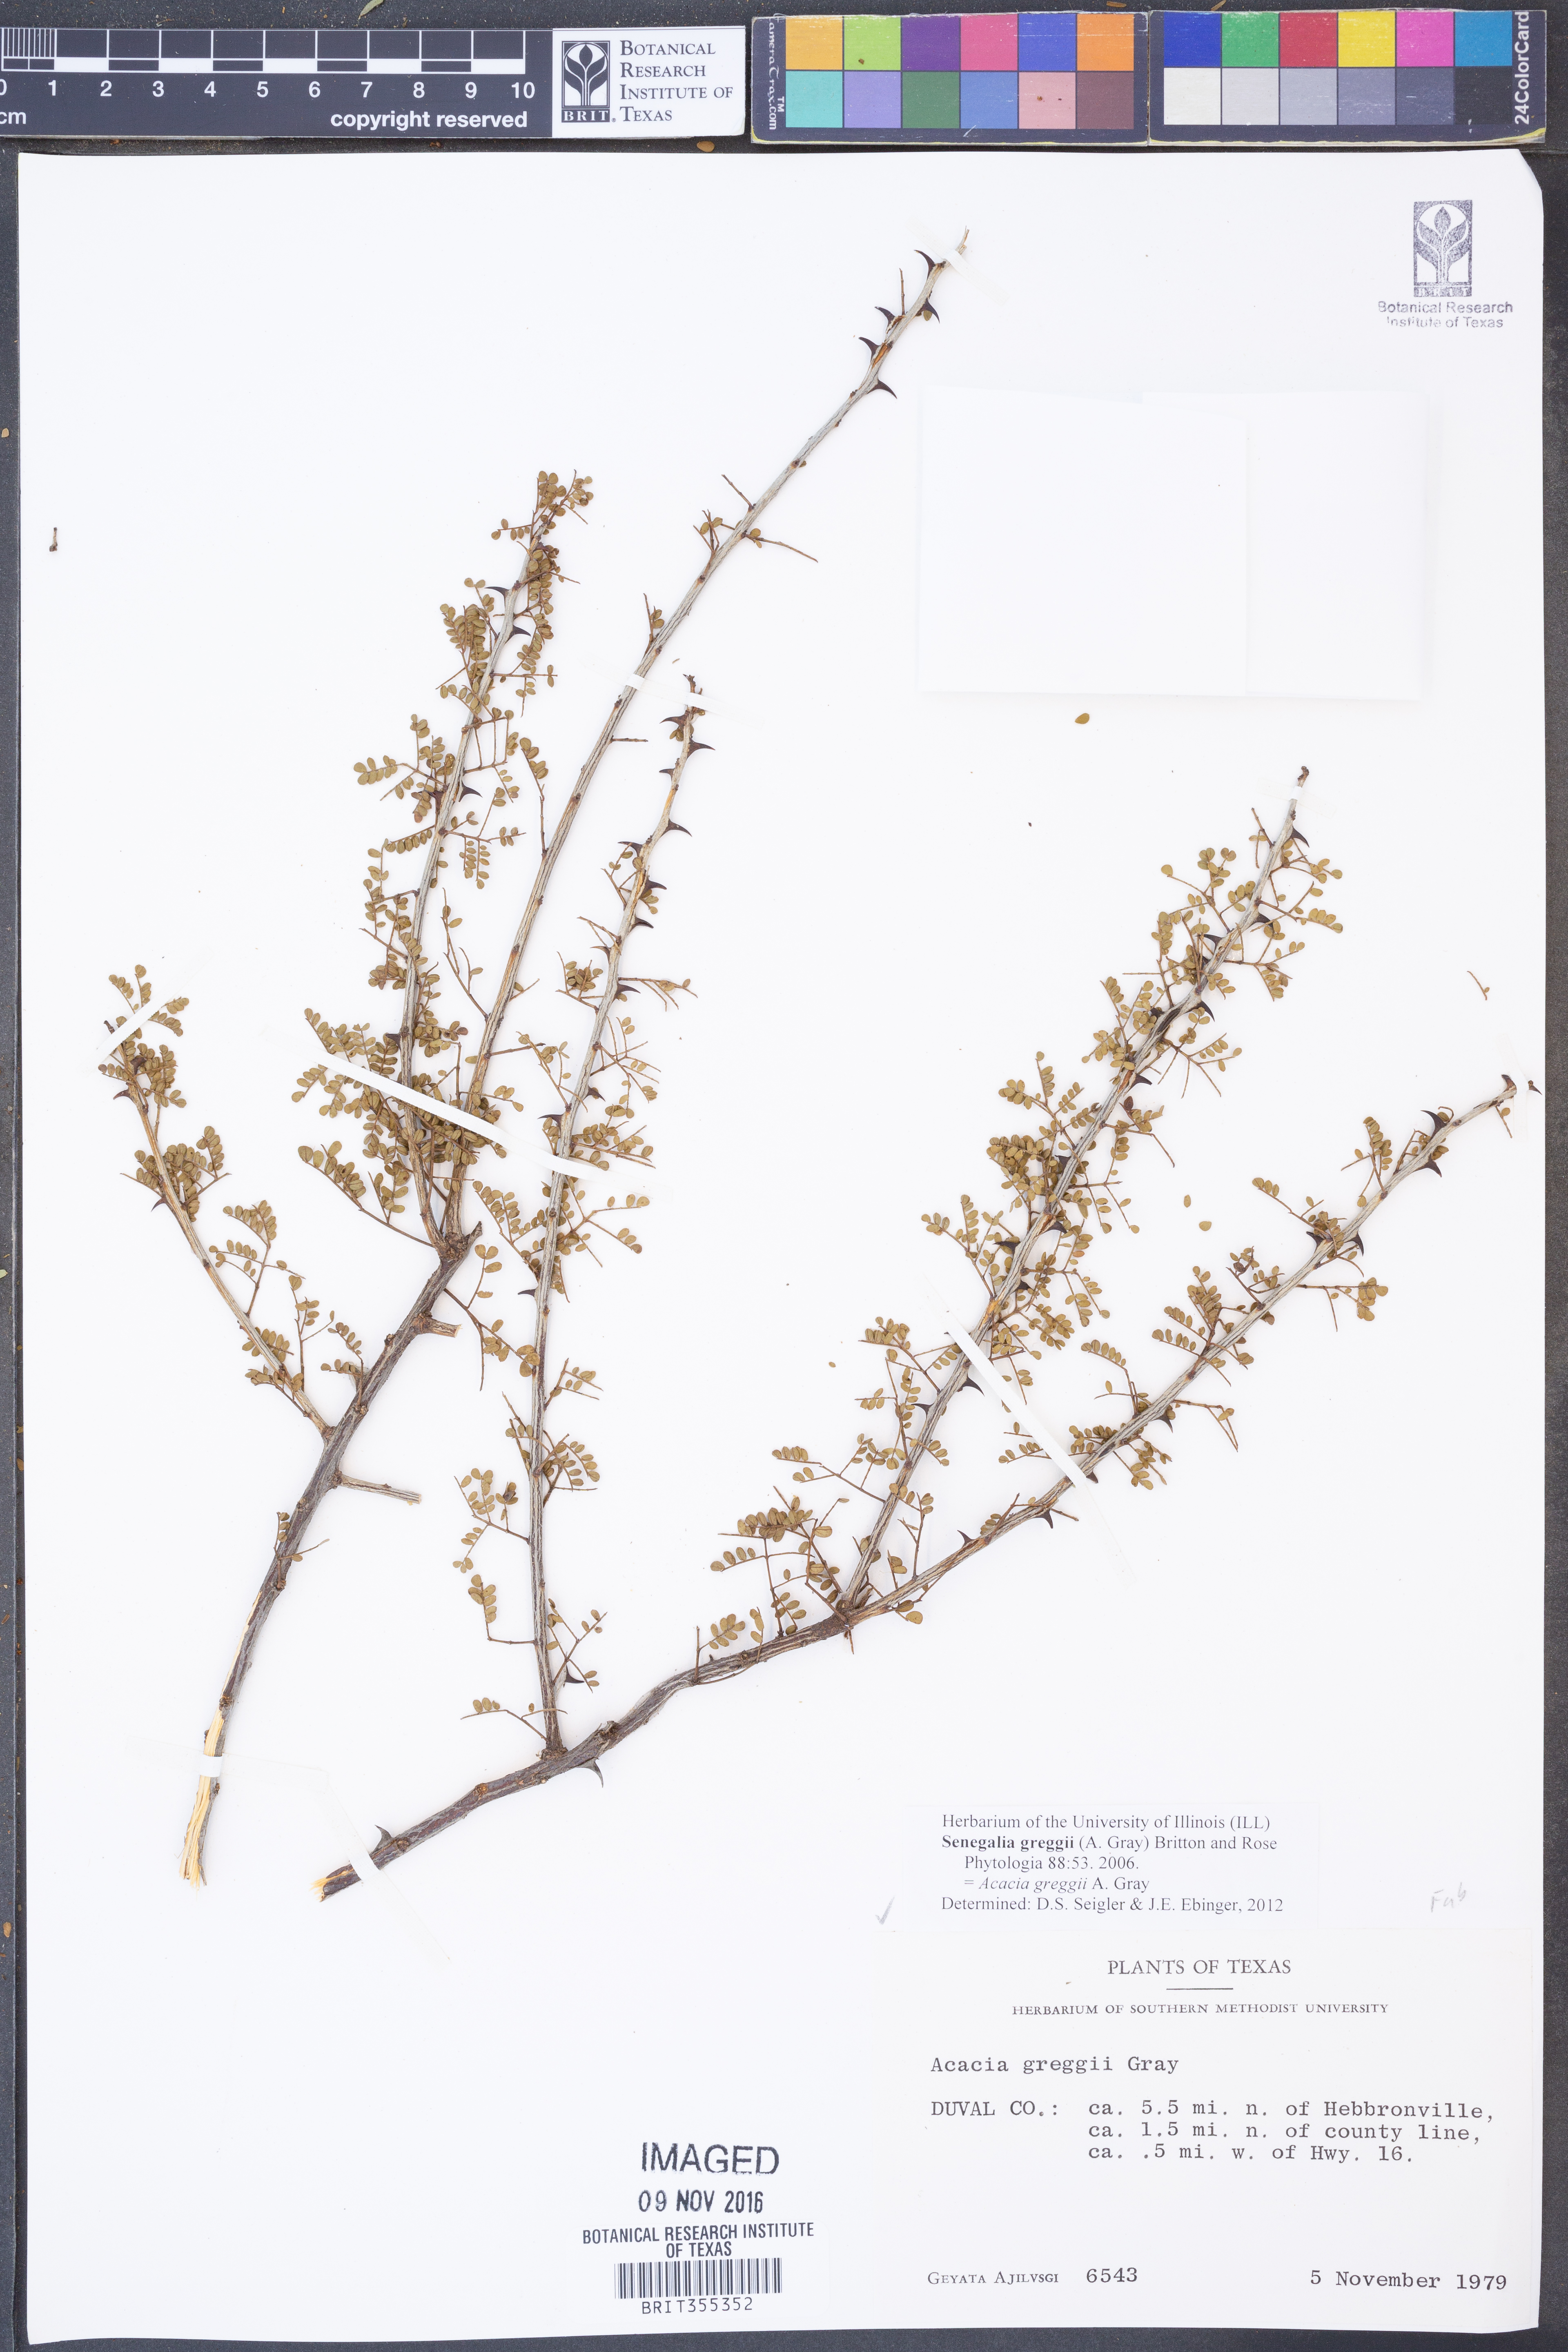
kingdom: Plantae
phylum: Tracheophyta
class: Magnoliopsida
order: Fabales
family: Fabaceae
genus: Senegalia
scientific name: Senegalia greggii
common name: Texas-mimosa
